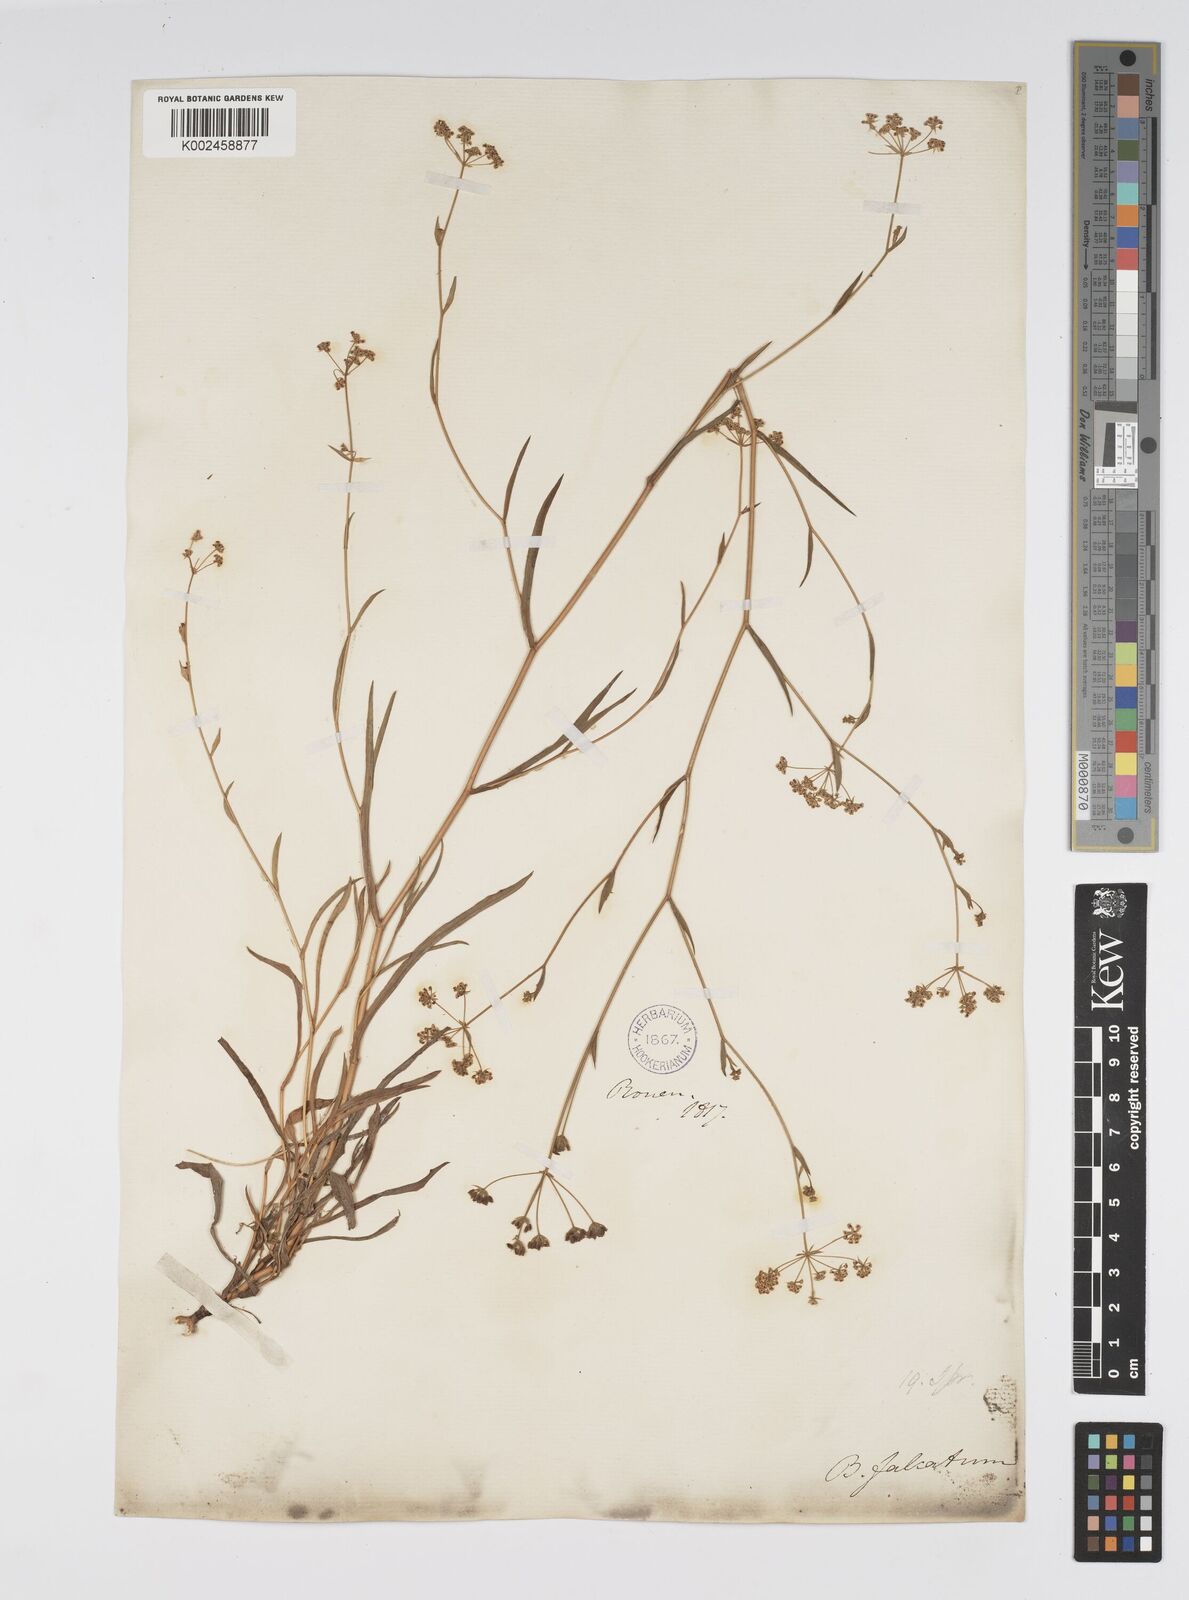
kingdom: Plantae
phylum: Tracheophyta
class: Magnoliopsida
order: Apiales
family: Apiaceae
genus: Bupleurum
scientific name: Bupleurum falcatum
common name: Sickle-leaved hare's-ear
